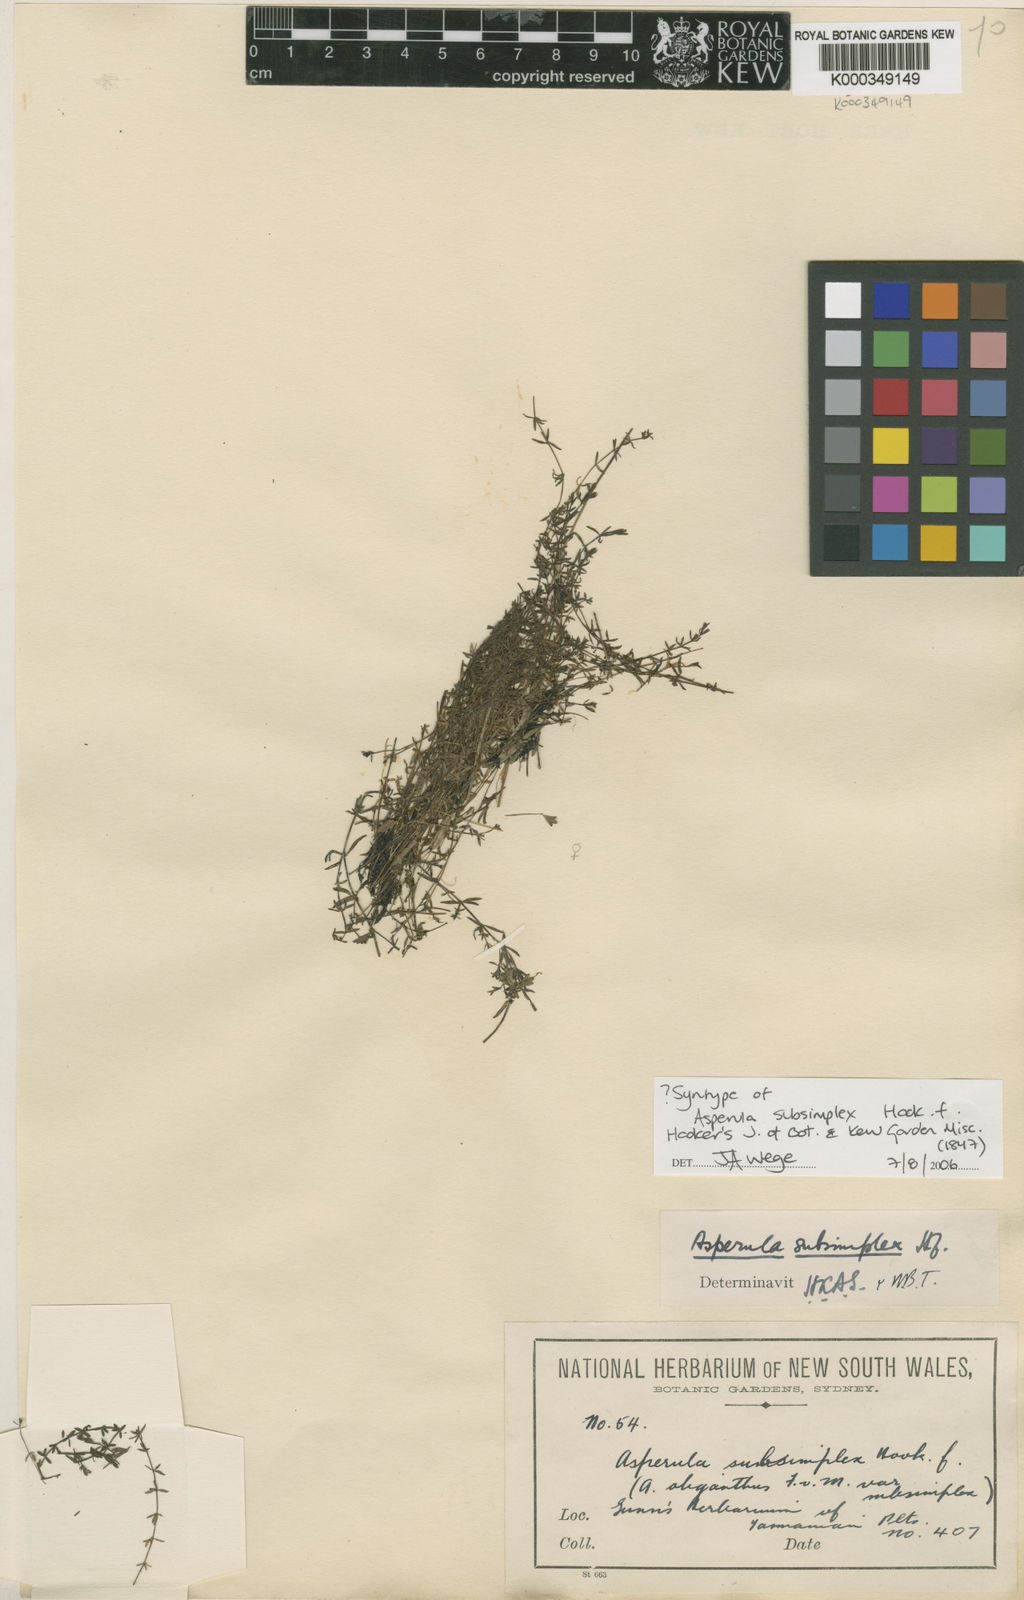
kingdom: Plantae
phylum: Tracheophyta
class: Magnoliopsida
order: Gentianales
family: Rubiaceae
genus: Asperula
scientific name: Asperula subsimplex
